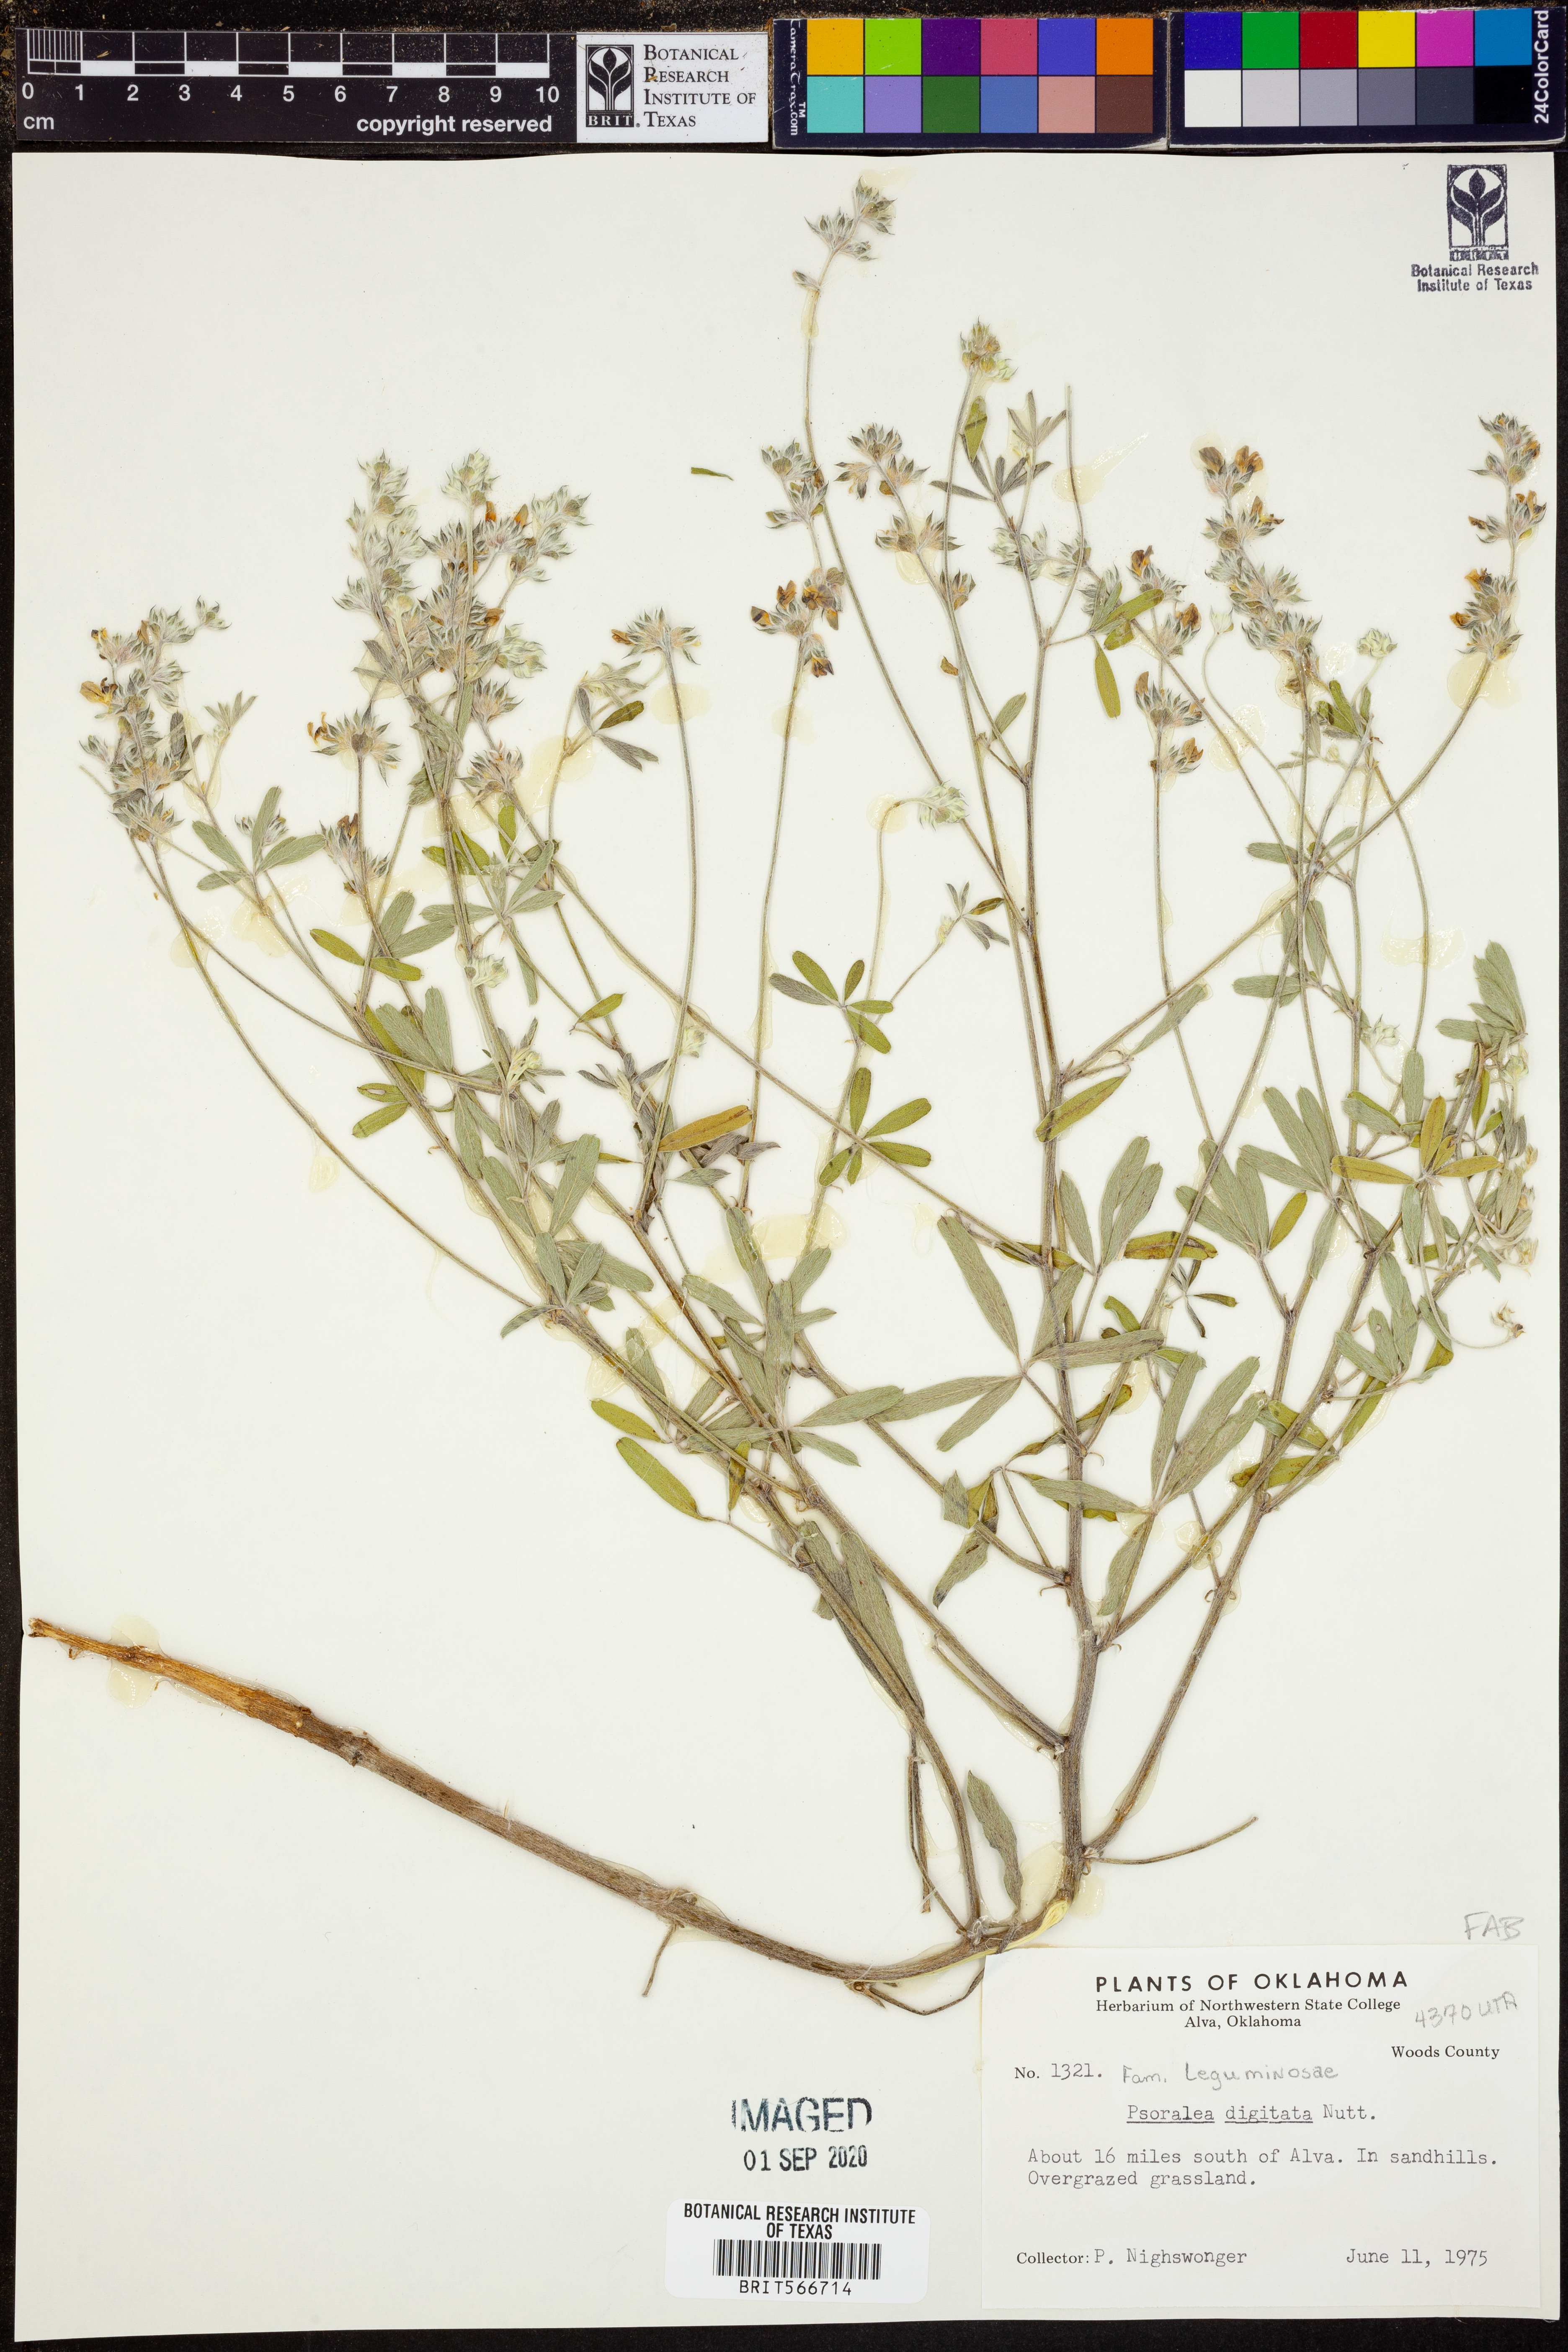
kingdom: Plantae
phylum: Tracheophyta
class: Magnoliopsida
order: Fabales
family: Fabaceae
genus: Pediomelum
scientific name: Pediomelum digitatum
